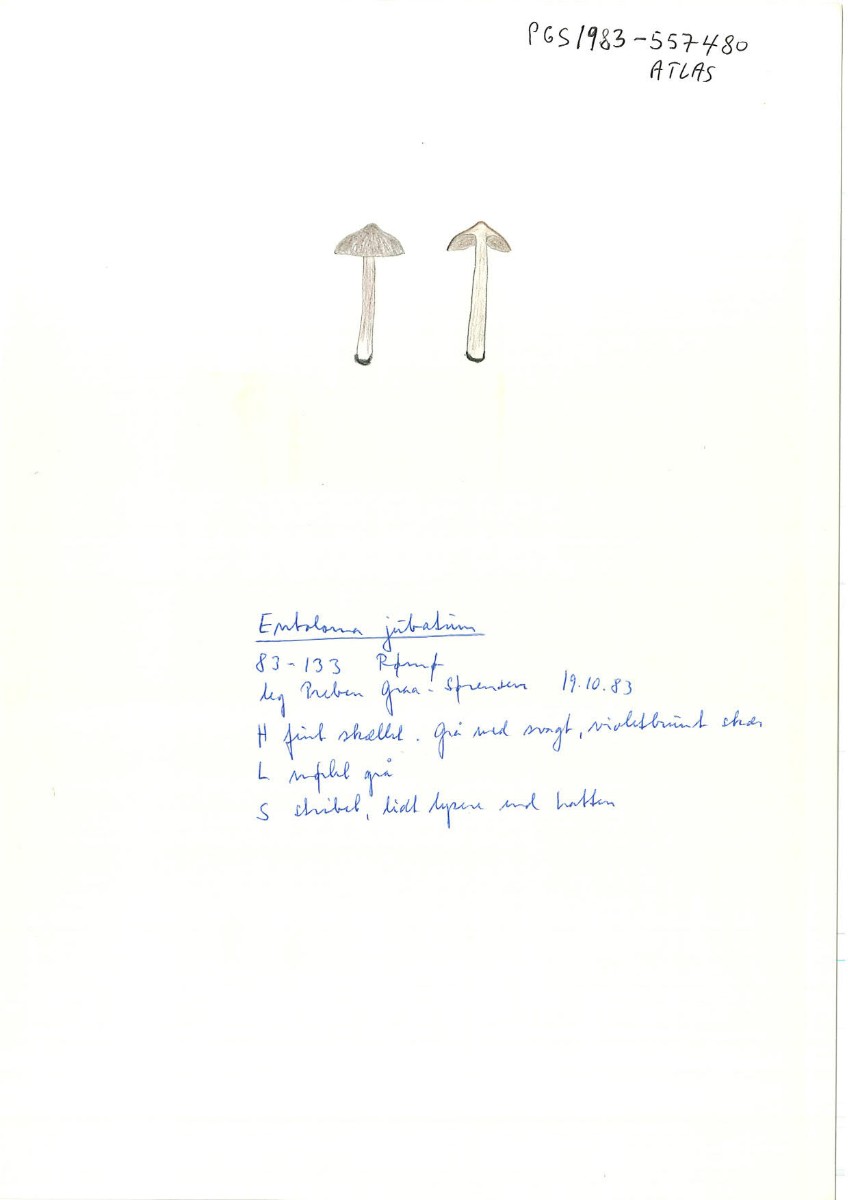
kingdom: Fungi
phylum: Basidiomycota
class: Agaricomycetes
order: Agaricales
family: Entolomataceae
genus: Entoloma
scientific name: Entoloma jubatum
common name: ruskællet rødblad
